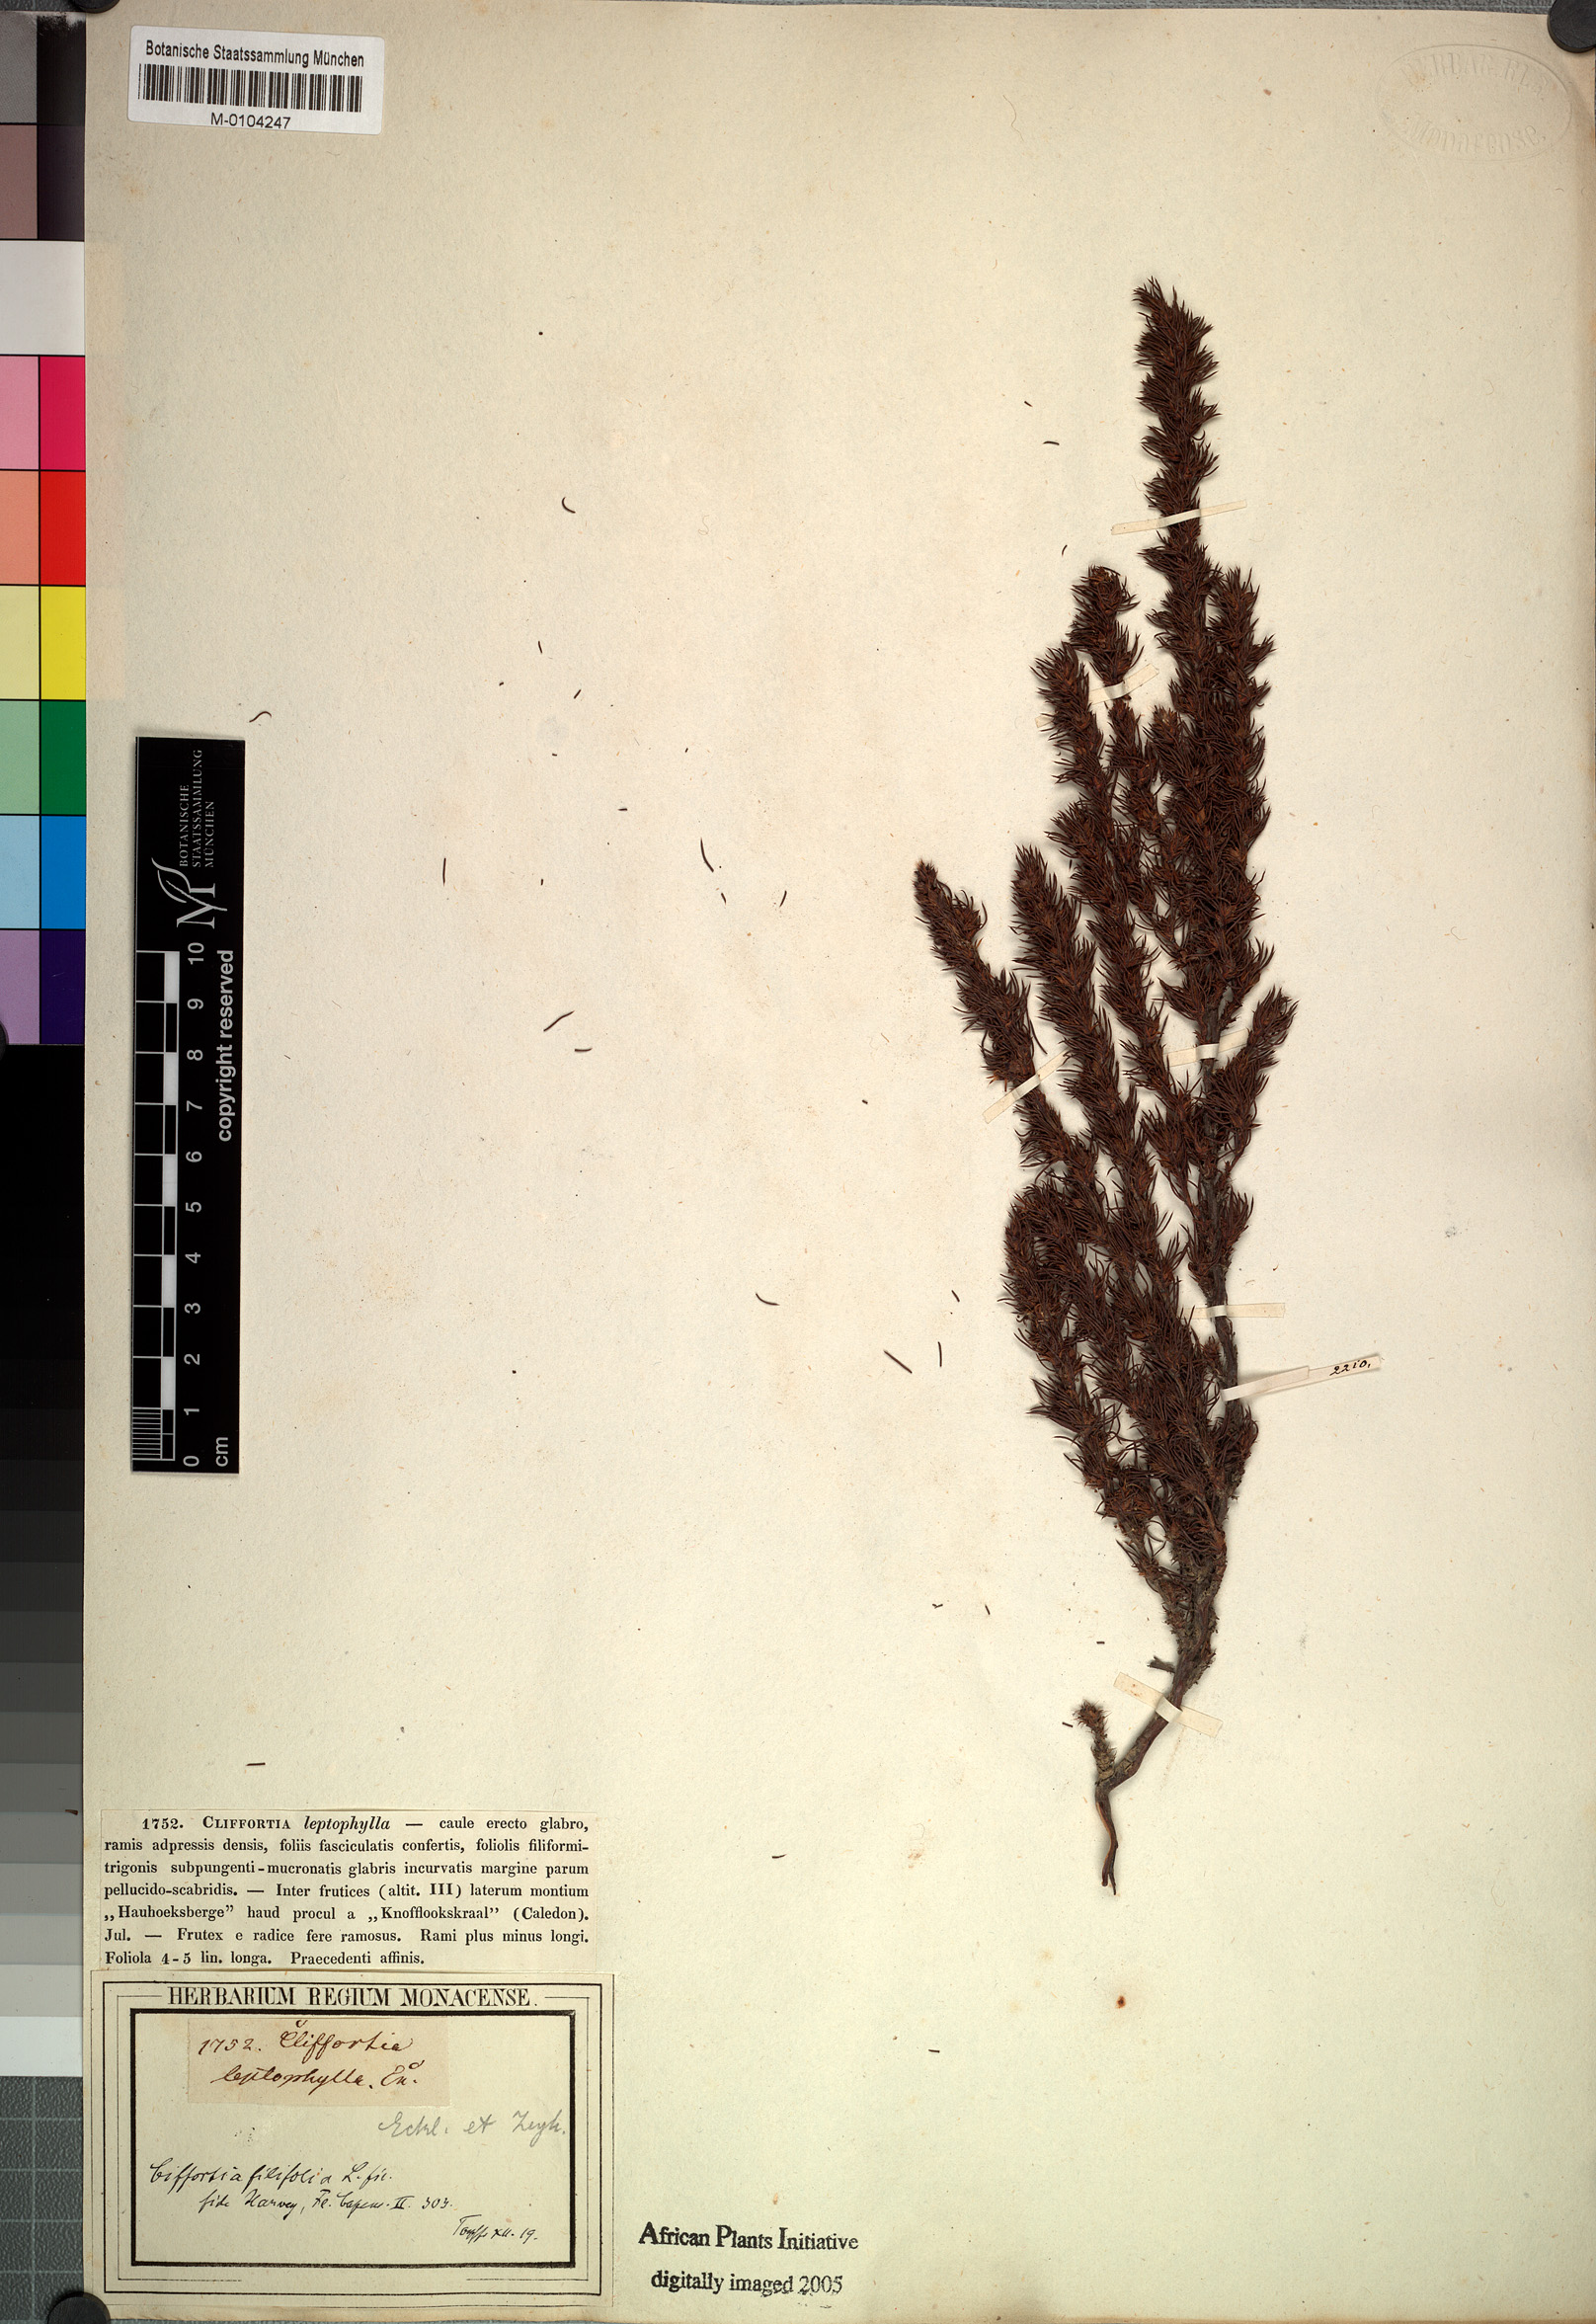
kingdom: Plantae
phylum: Tracheophyta
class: Magnoliopsida
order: Rosales
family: Rosaceae
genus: Cliffortia
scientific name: Cliffortia filifolia
